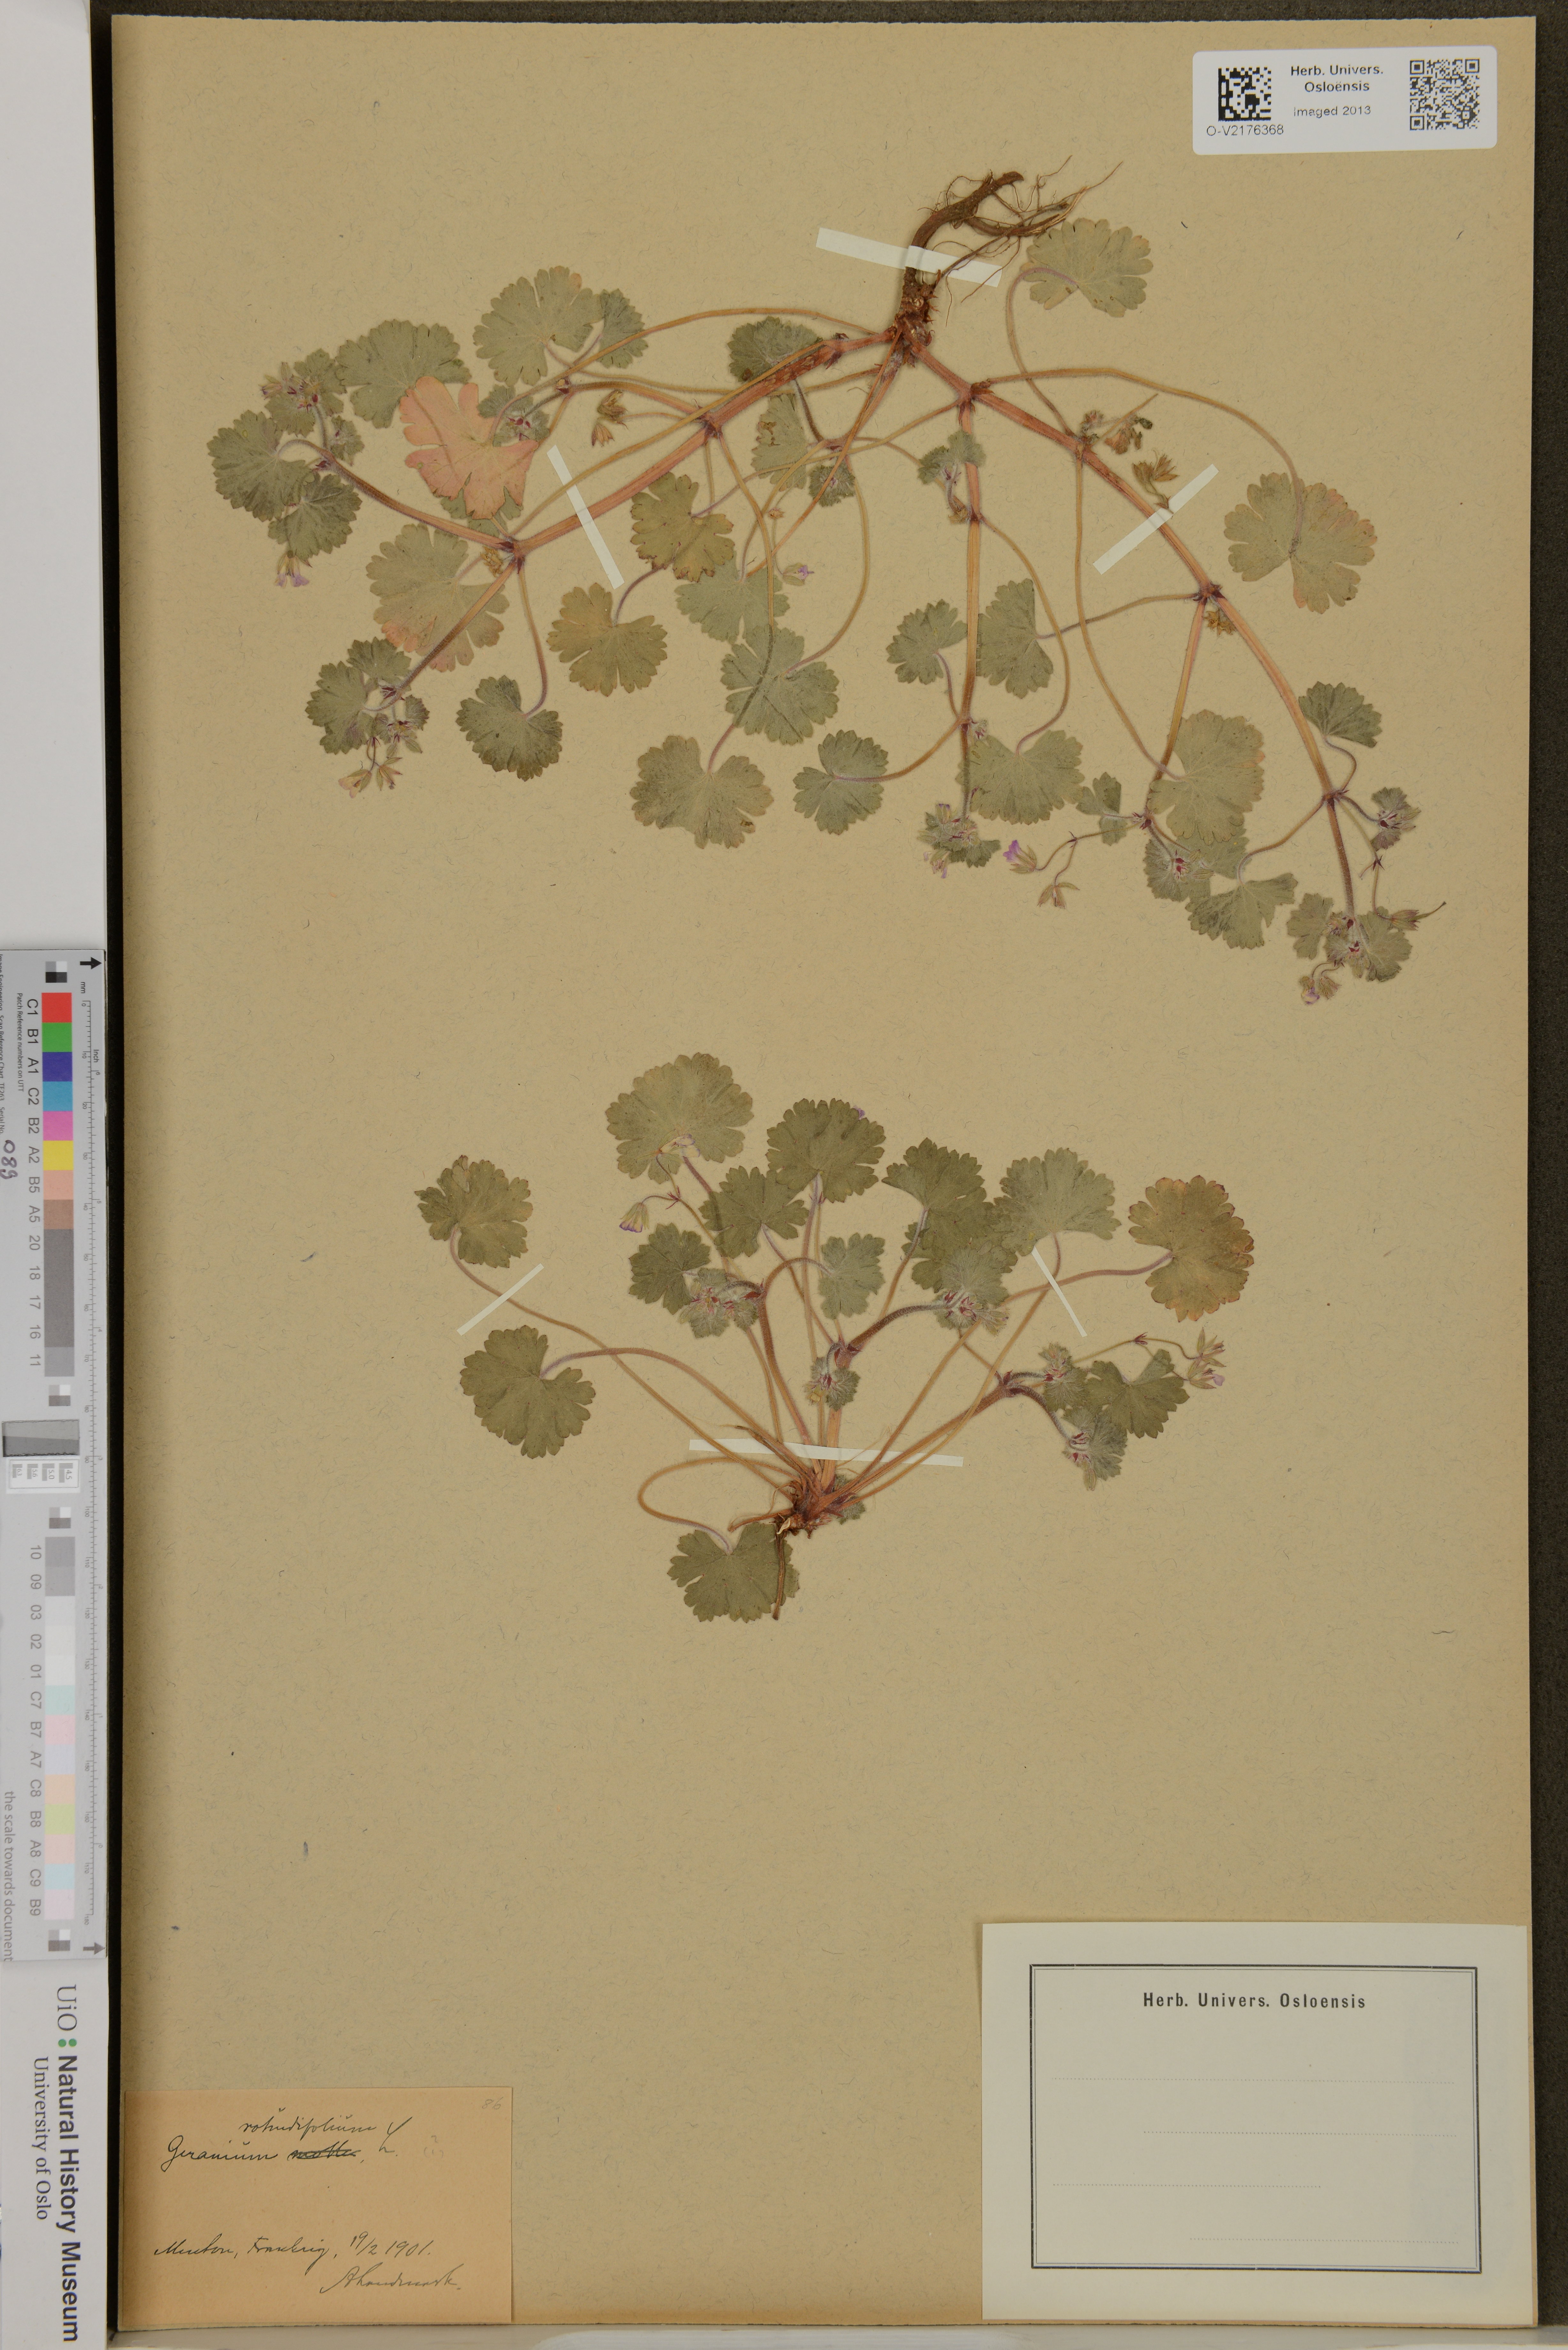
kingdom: Plantae
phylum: Tracheophyta
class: Magnoliopsida
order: Geraniales
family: Geraniaceae
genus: Geranium
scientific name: Geranium rotundifolium
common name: Round-leaved crane's-bill
